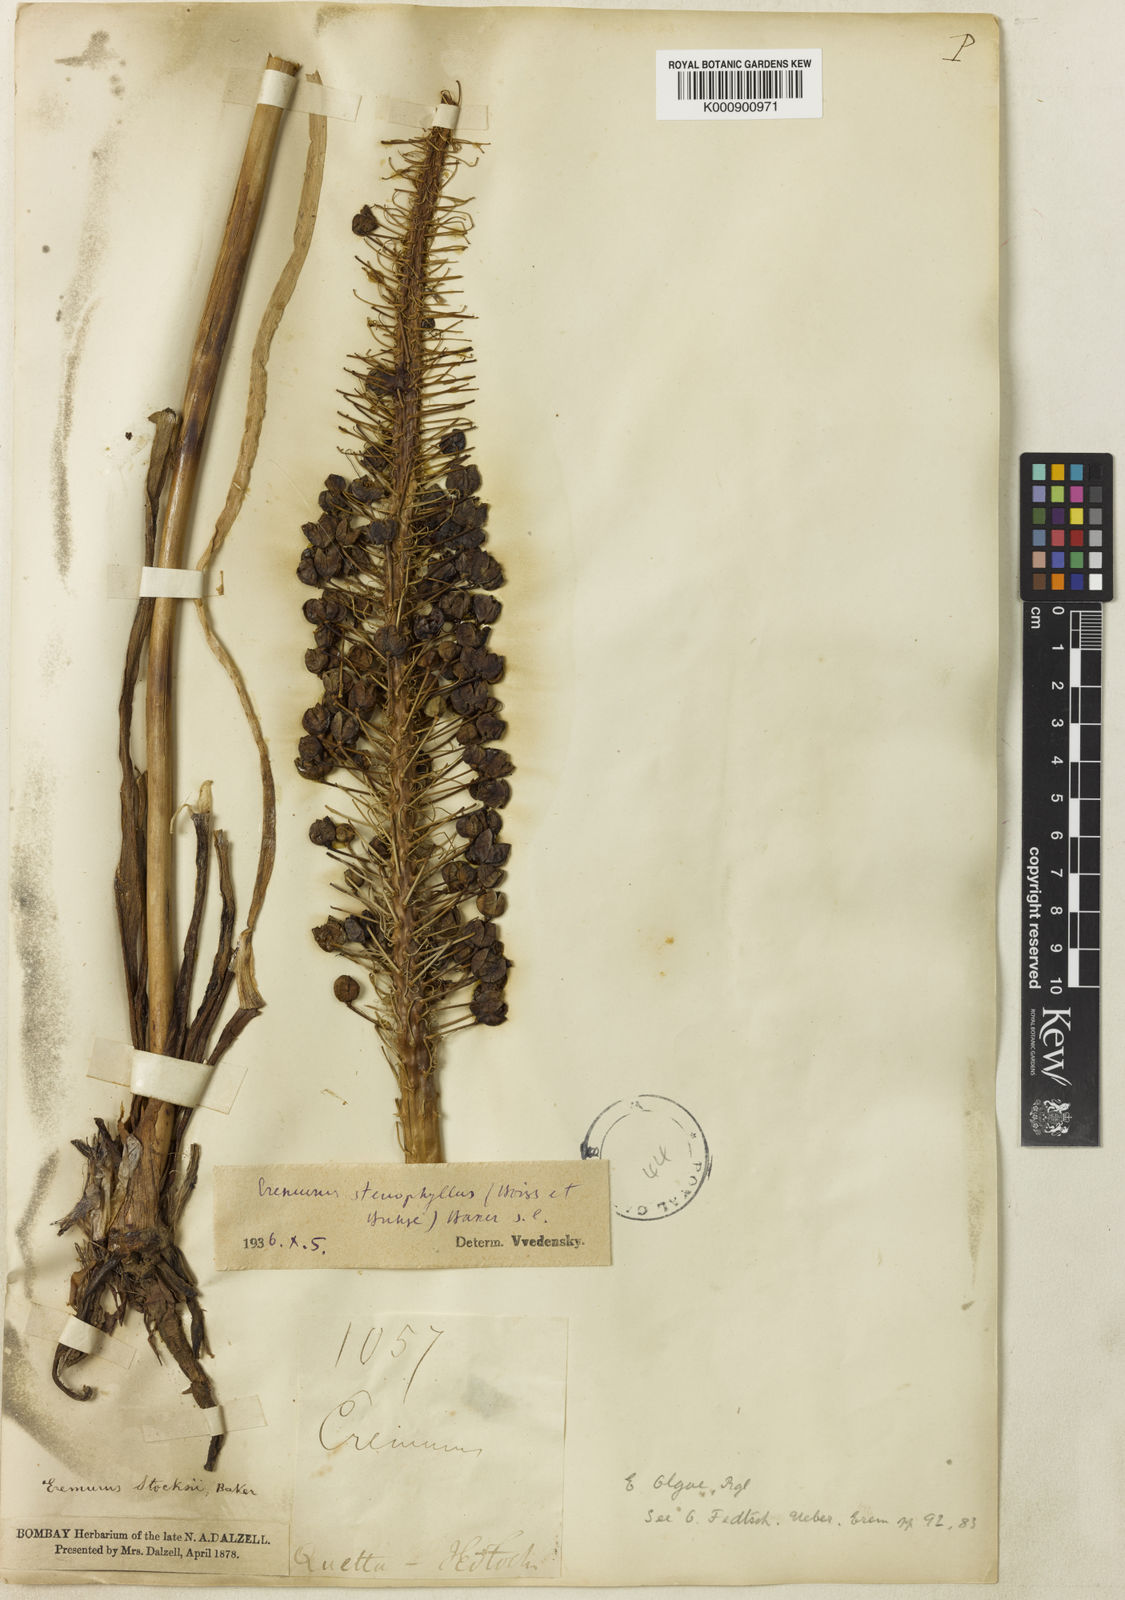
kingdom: Plantae
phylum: Tracheophyta
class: Liliopsida
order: Asparagales
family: Asphodelaceae
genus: Eremurus
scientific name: Eremurus stenophyllus
